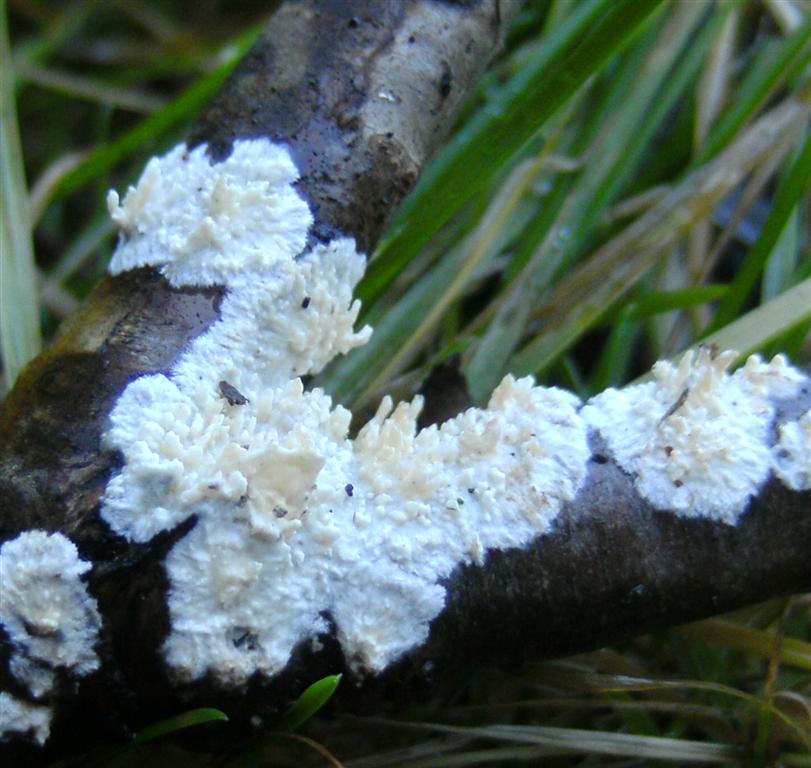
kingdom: Fungi
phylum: Basidiomycota
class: Agaricomycetes
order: Hymenochaetales
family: Schizoporaceae
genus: Xylodon
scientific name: Xylodon radula
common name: grovtandet kalkskind
